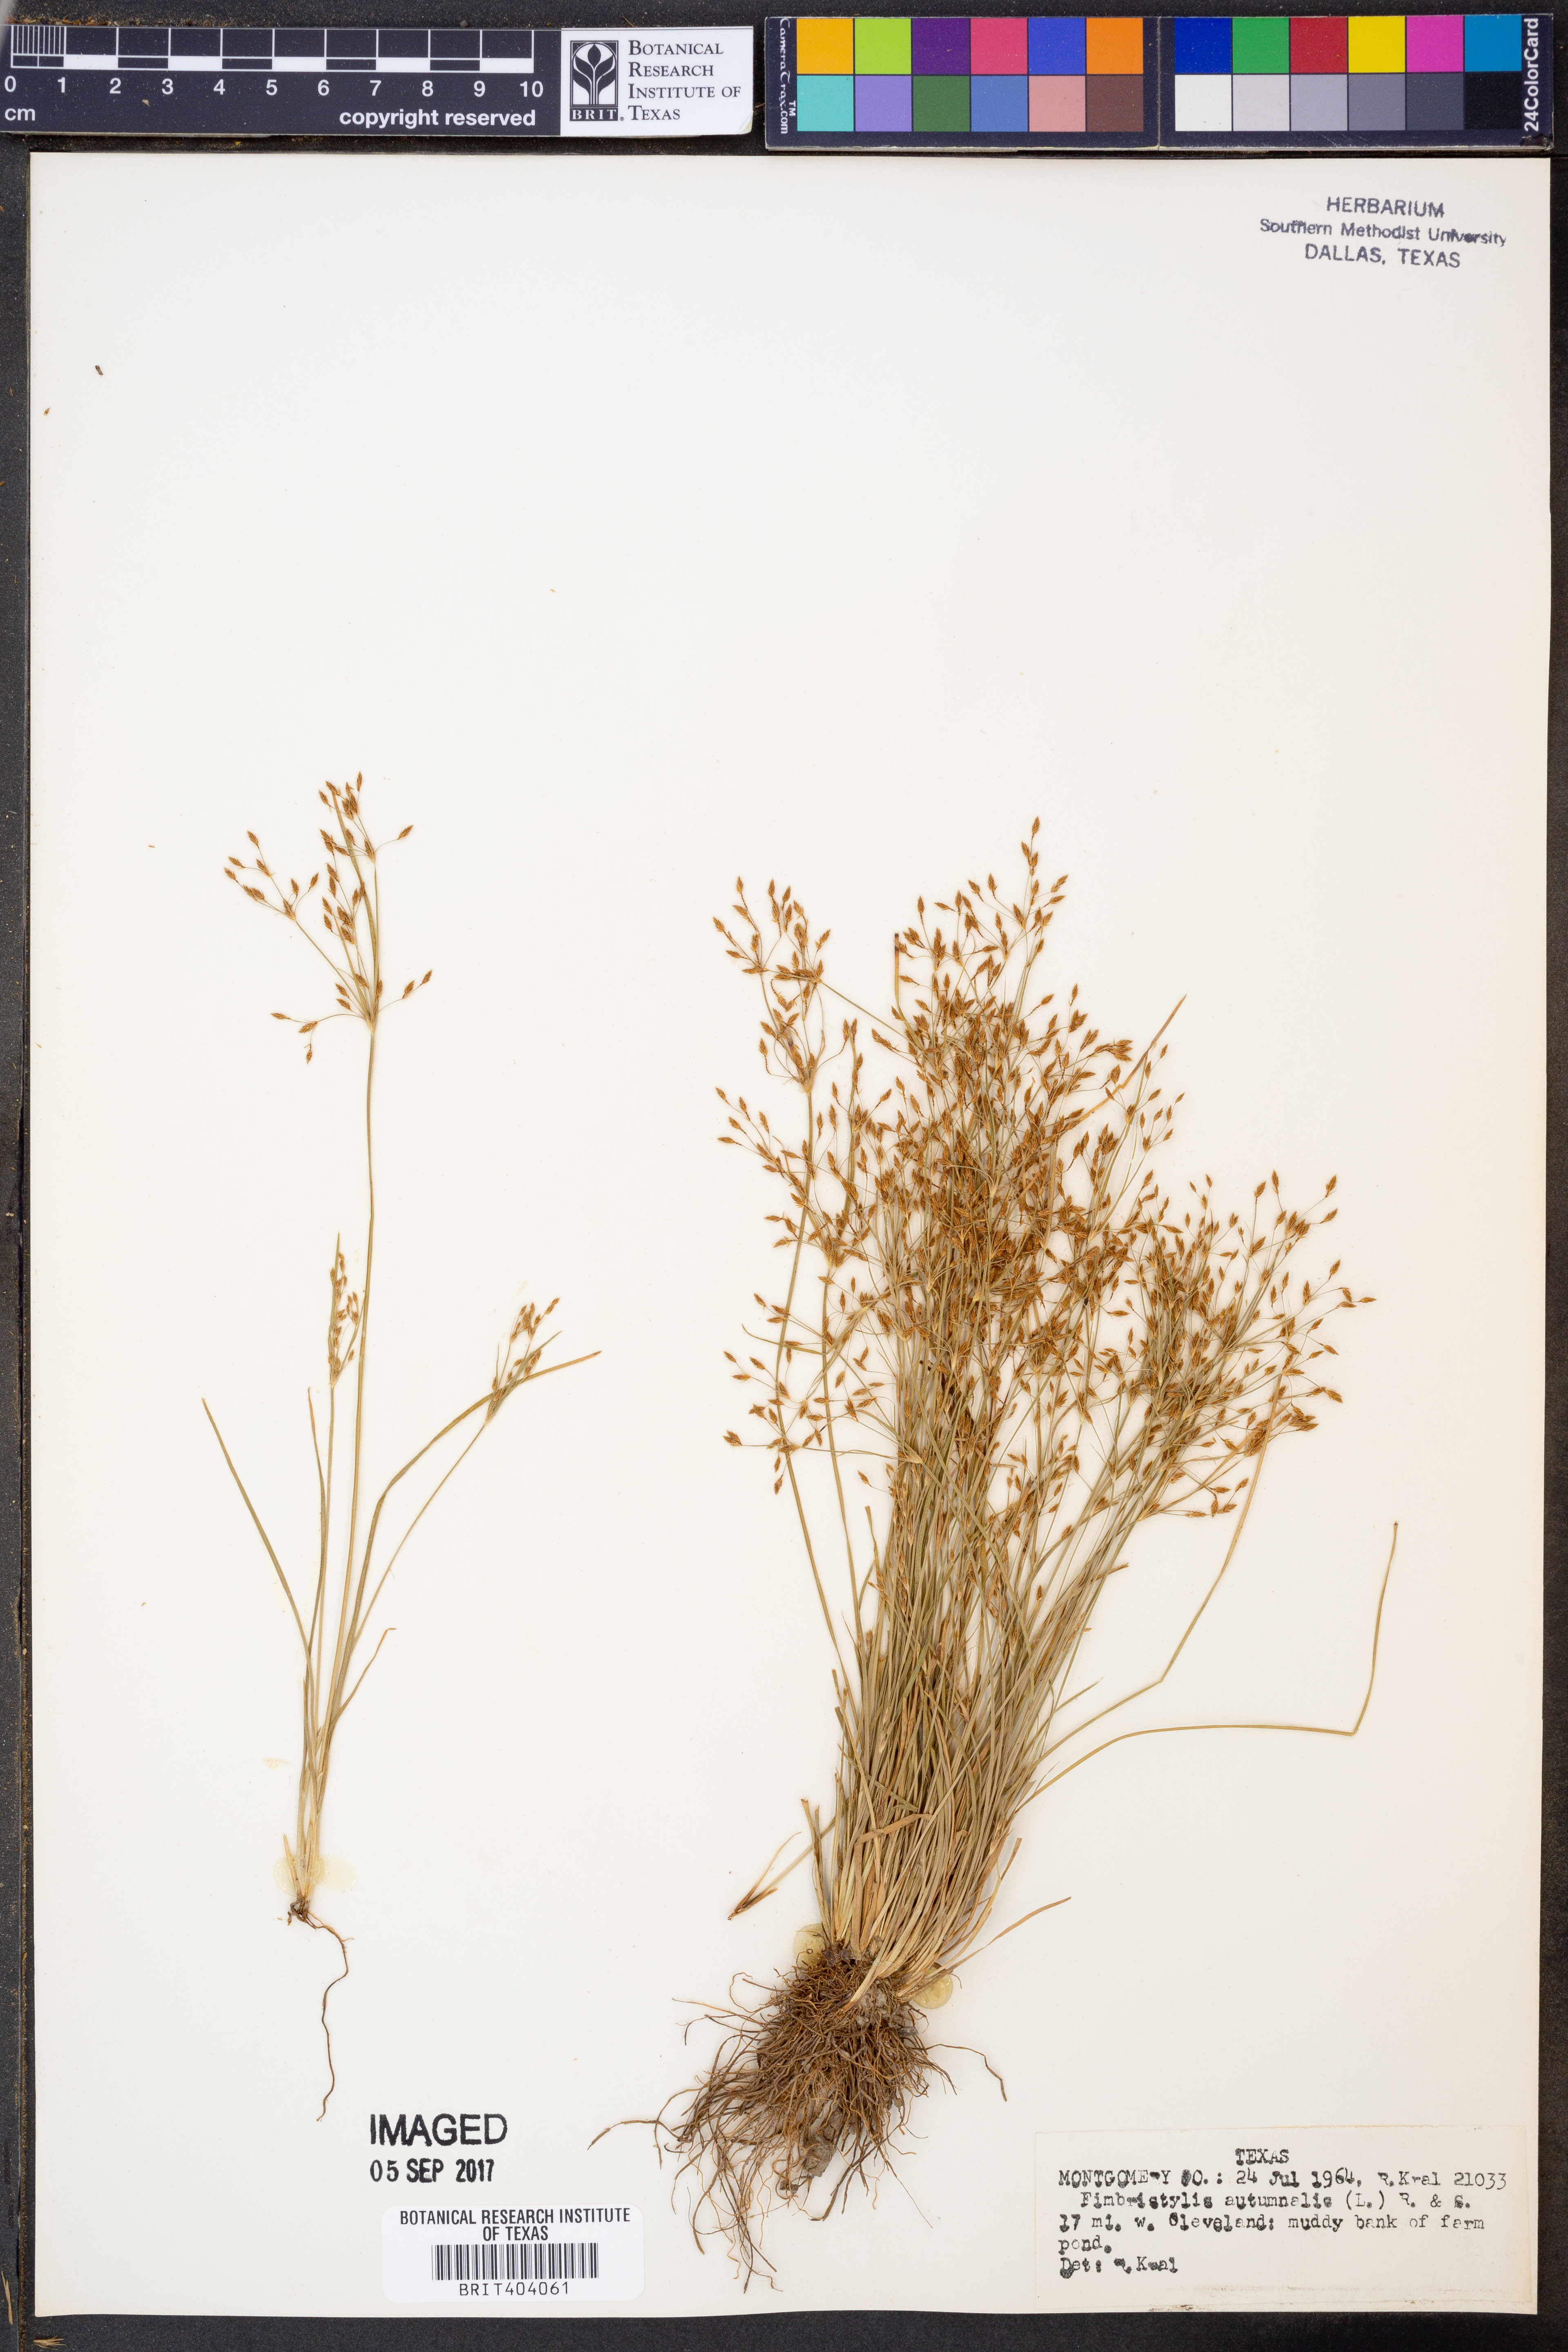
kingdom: Plantae
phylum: Tracheophyta
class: Liliopsida
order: Poales
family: Cyperaceae
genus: Fimbristylis
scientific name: Fimbristylis autumnalis
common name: Slender fimbristylis
